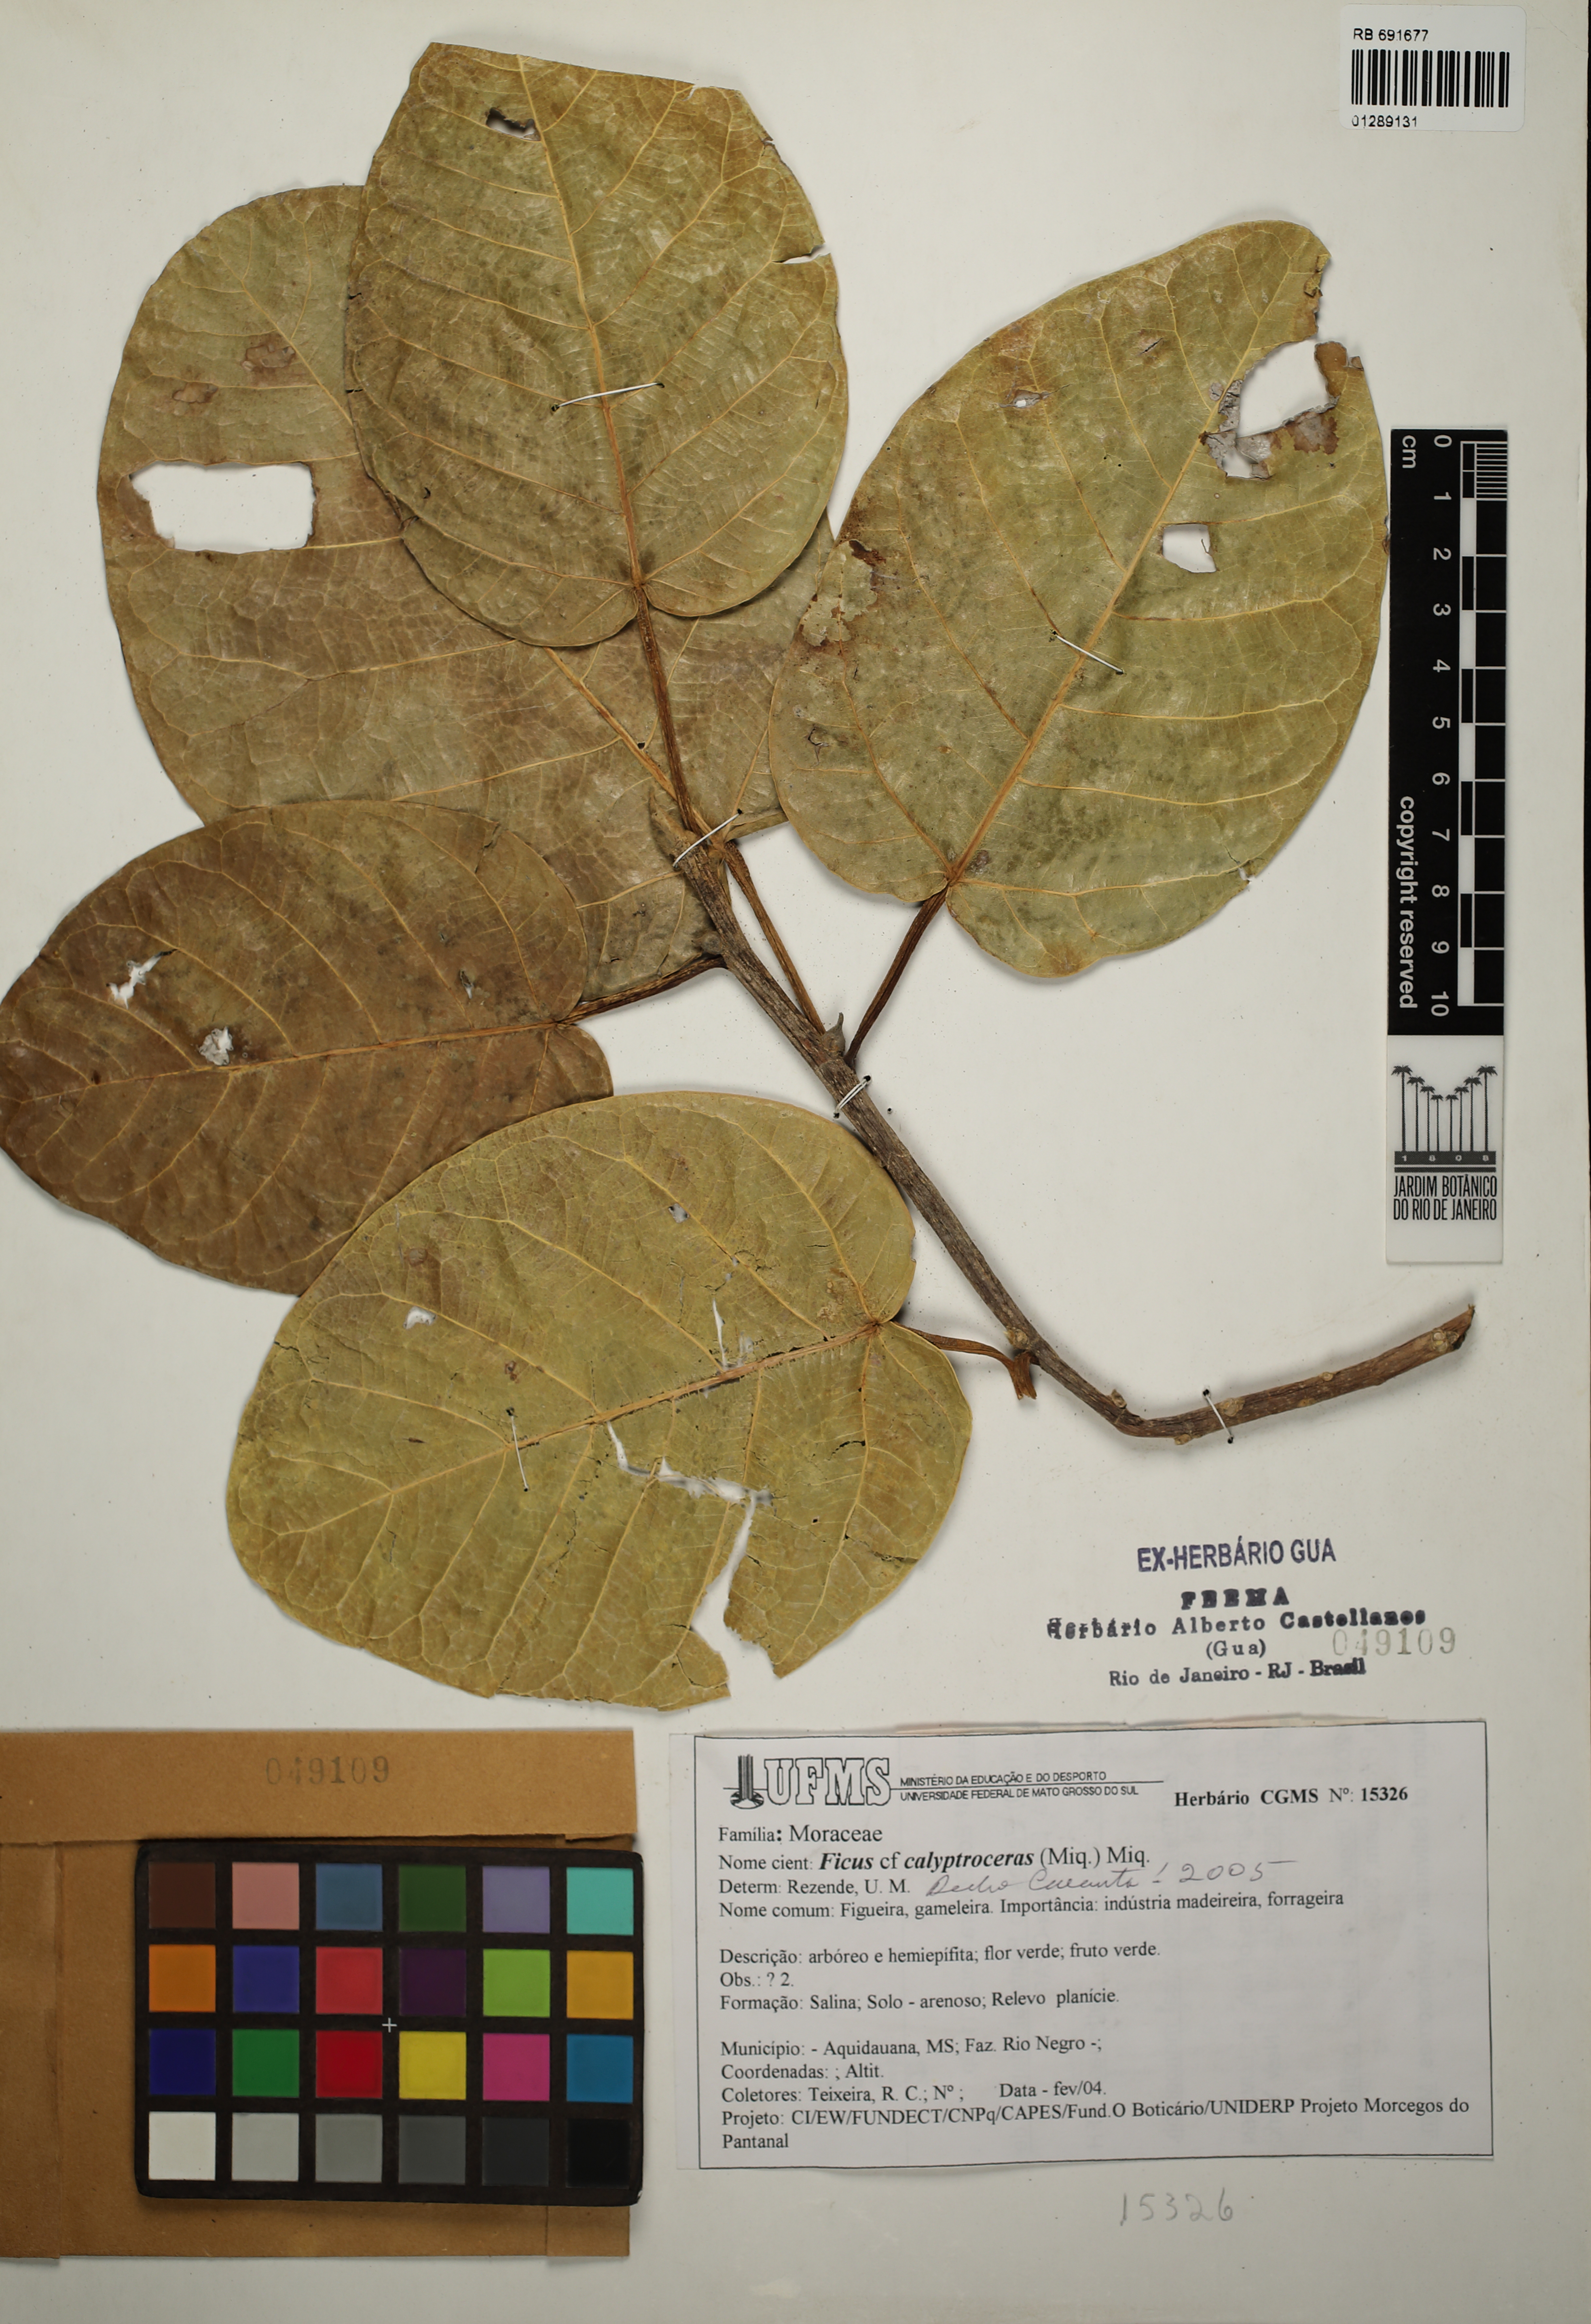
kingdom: Plantae
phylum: Tracheophyta
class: Magnoliopsida
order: Rosales
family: Moraceae
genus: Ficus
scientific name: Ficus calyptroceras
